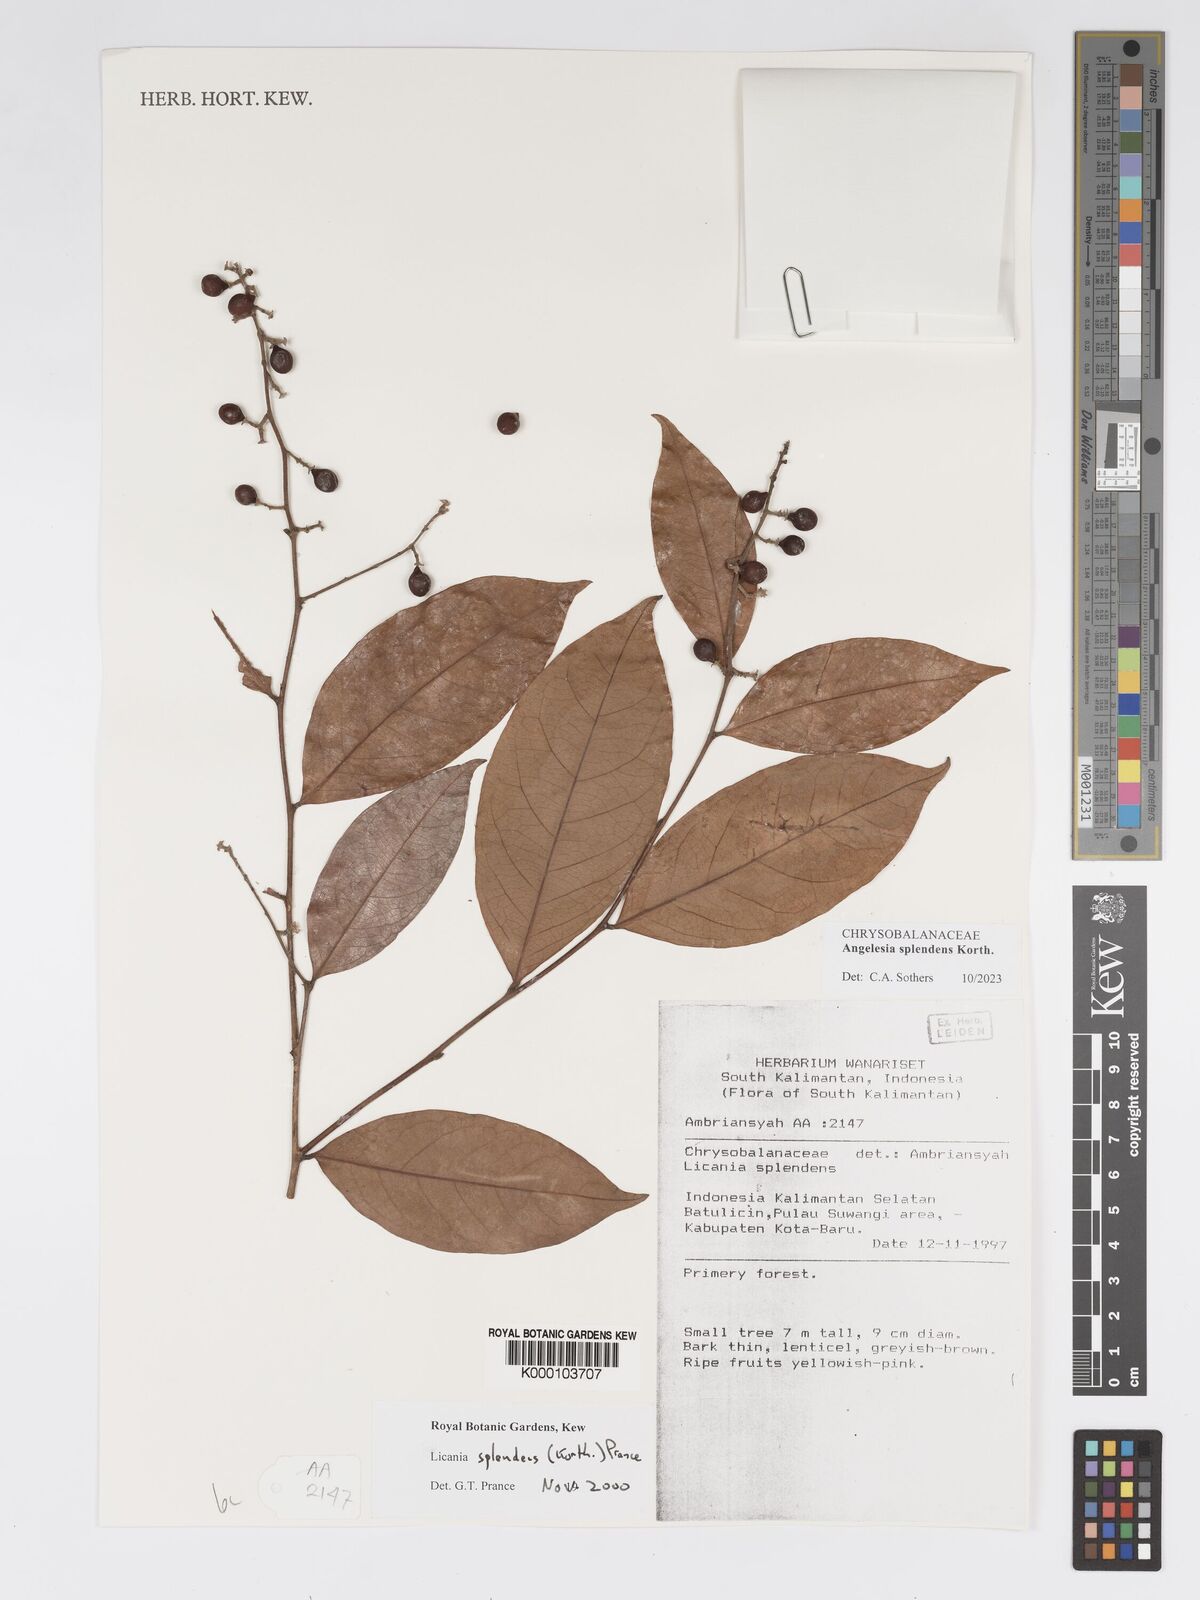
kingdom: Plantae
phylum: Tracheophyta
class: Magnoliopsida
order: Malpighiales
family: Chrysobalanaceae
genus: Angelesia
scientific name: Angelesia splendens
